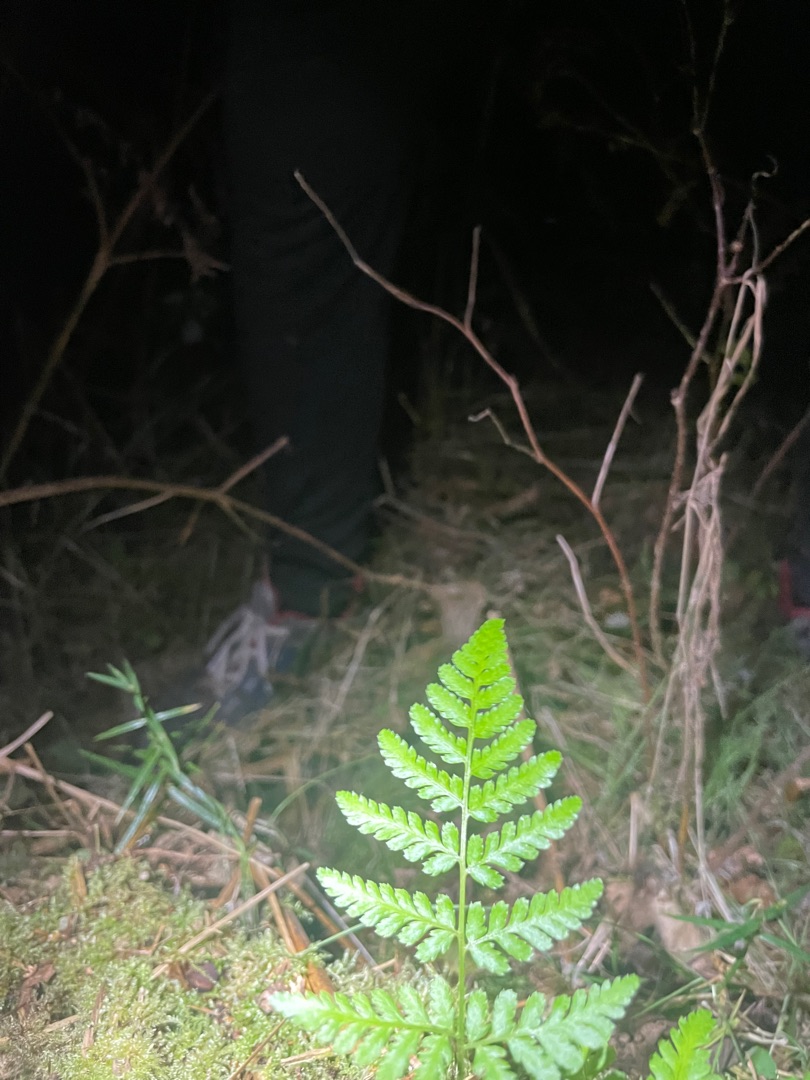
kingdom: Plantae
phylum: Tracheophyta
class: Polypodiopsida
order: Polypodiales
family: Dryopteridaceae
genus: Dryopteris
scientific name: Dryopteris filix-mas
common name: Almindelig mangeløv
